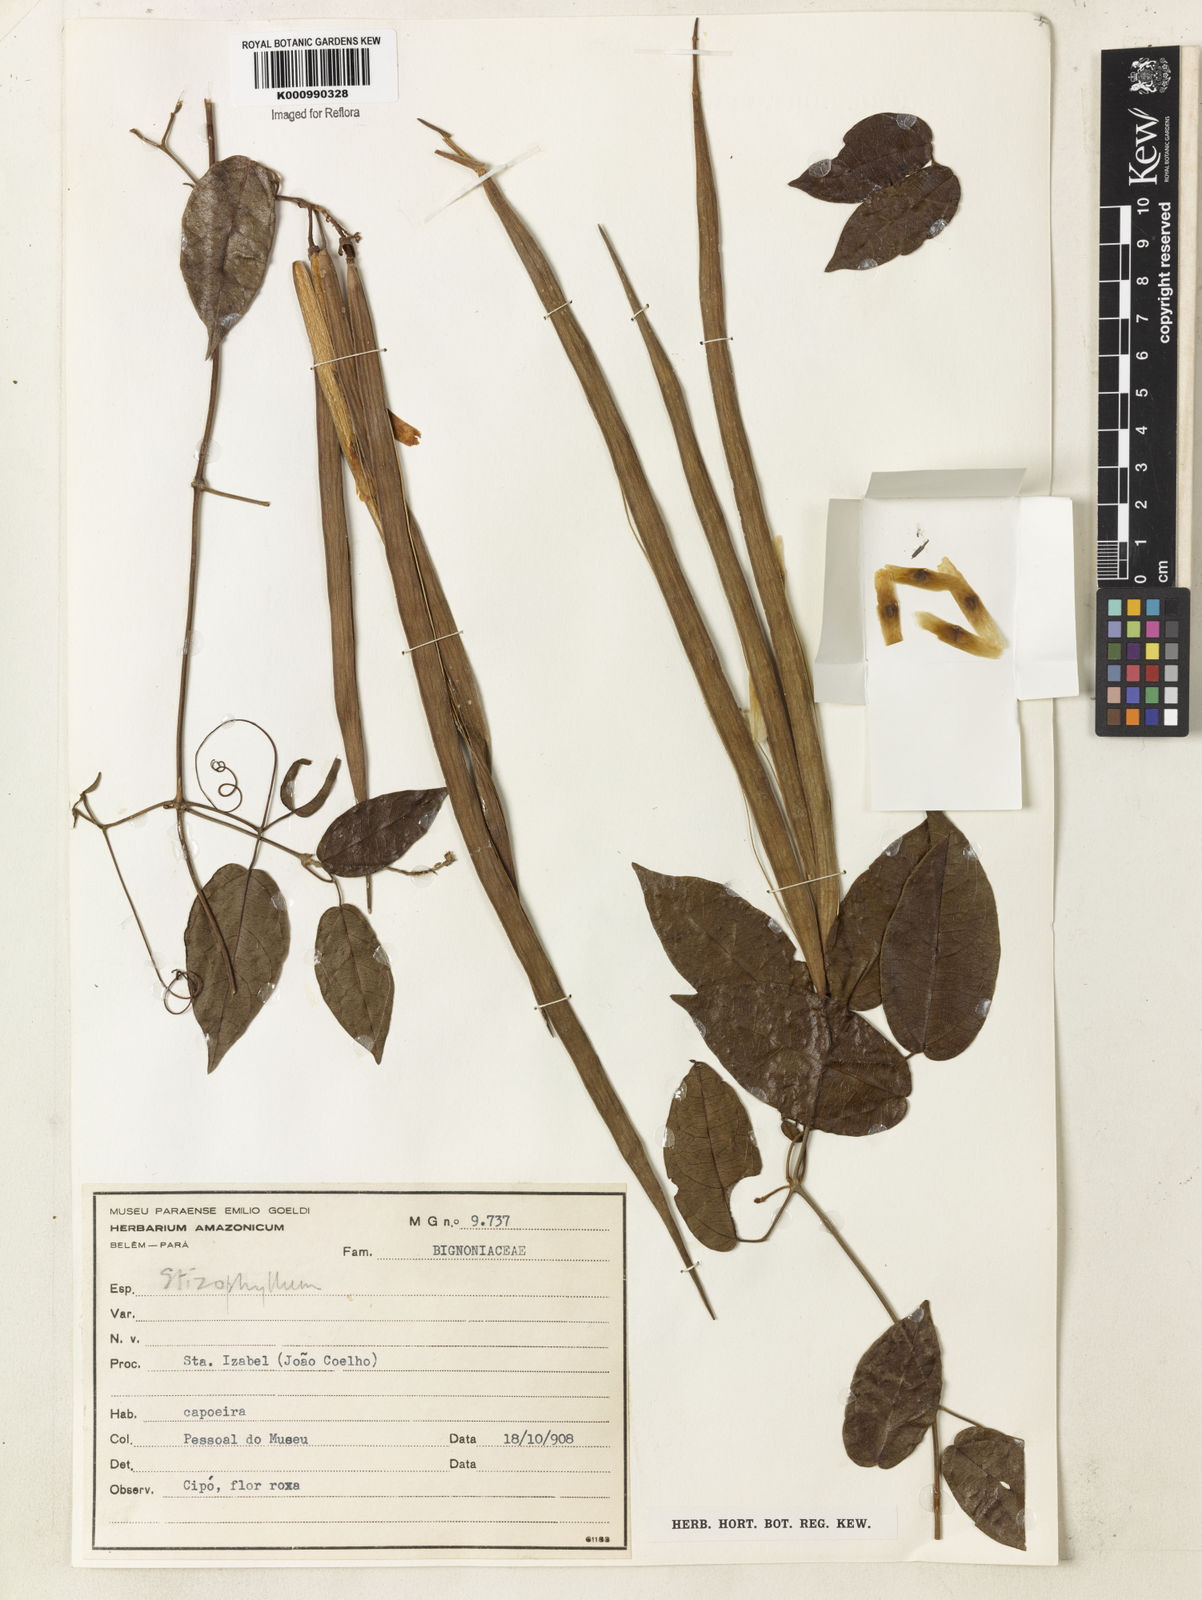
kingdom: Plantae
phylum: Tracheophyta
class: Magnoliopsida
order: Lamiales
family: Bignoniaceae
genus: Stizophyllum
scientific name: Stizophyllum
